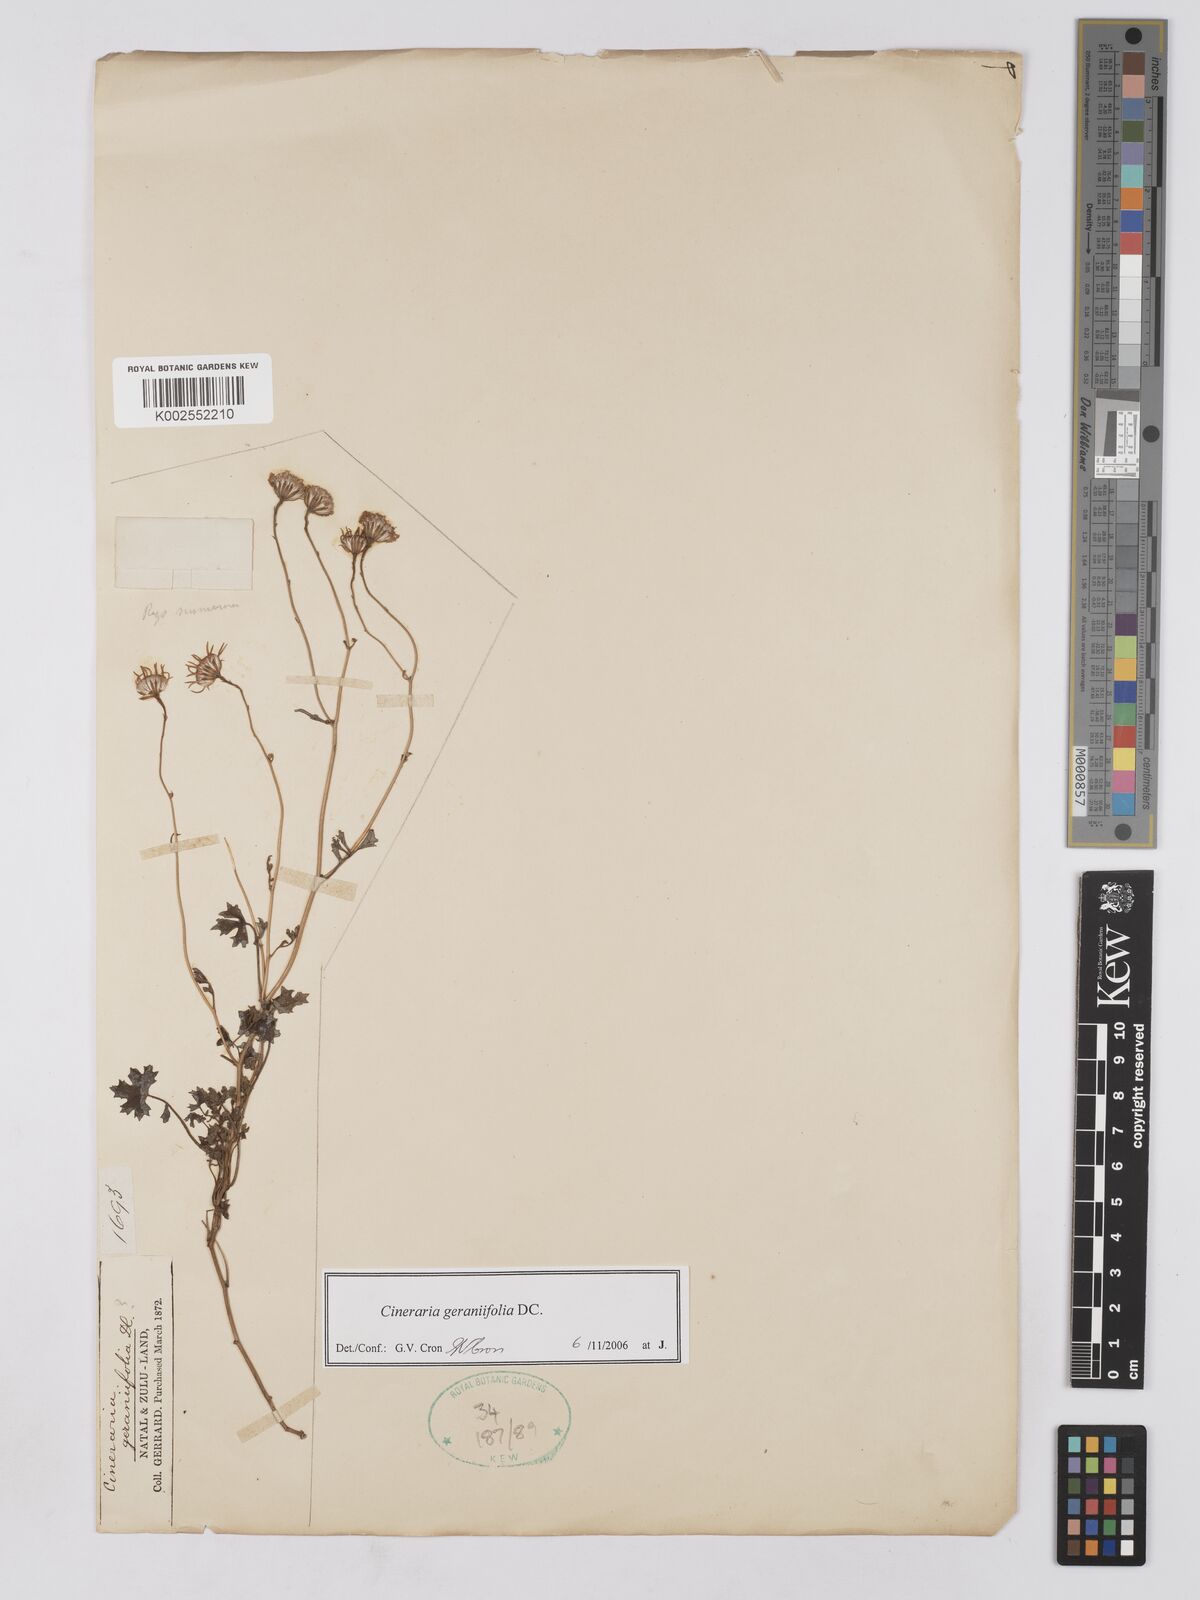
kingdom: Plantae
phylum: Tracheophyta
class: Magnoliopsida
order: Asterales
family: Asteraceae
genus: Cineraria
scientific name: Cineraria geraniifolia
